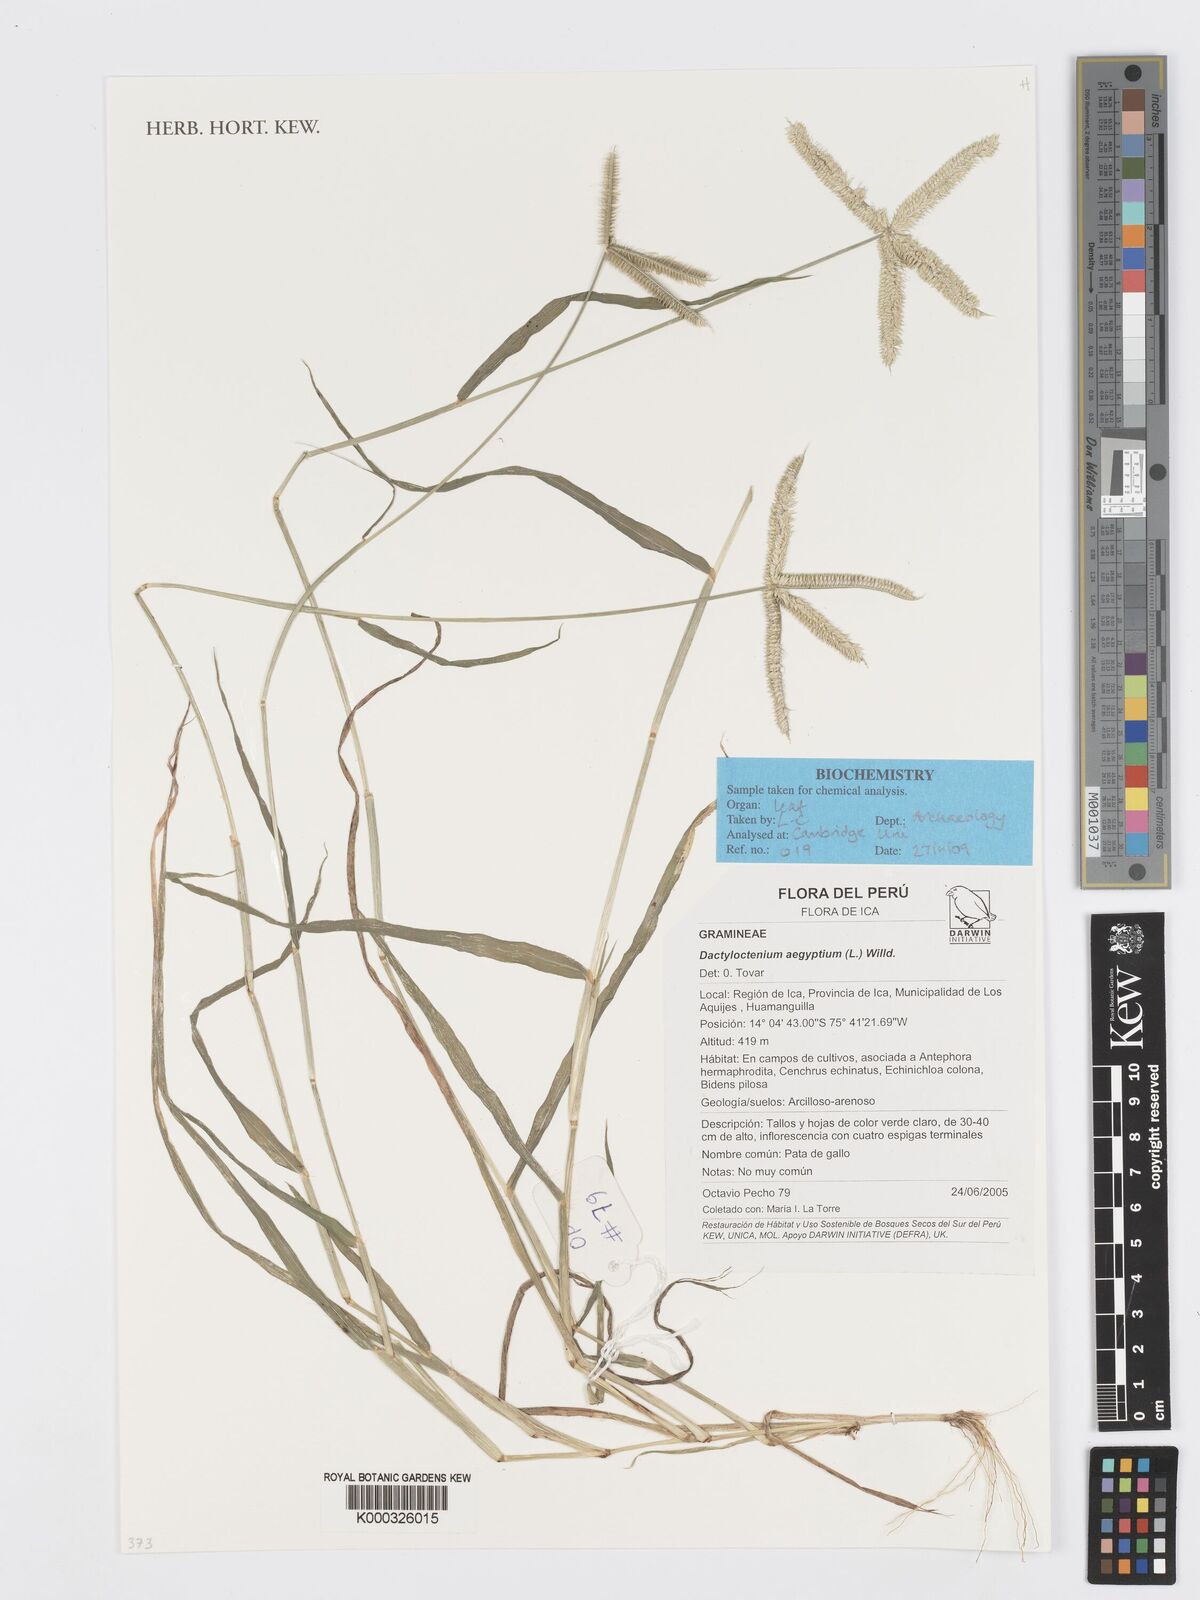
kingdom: Plantae
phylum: Tracheophyta
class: Liliopsida
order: Poales
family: Poaceae
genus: Dactyloctenium
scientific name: Dactyloctenium aegyptium
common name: Egyptian grass
